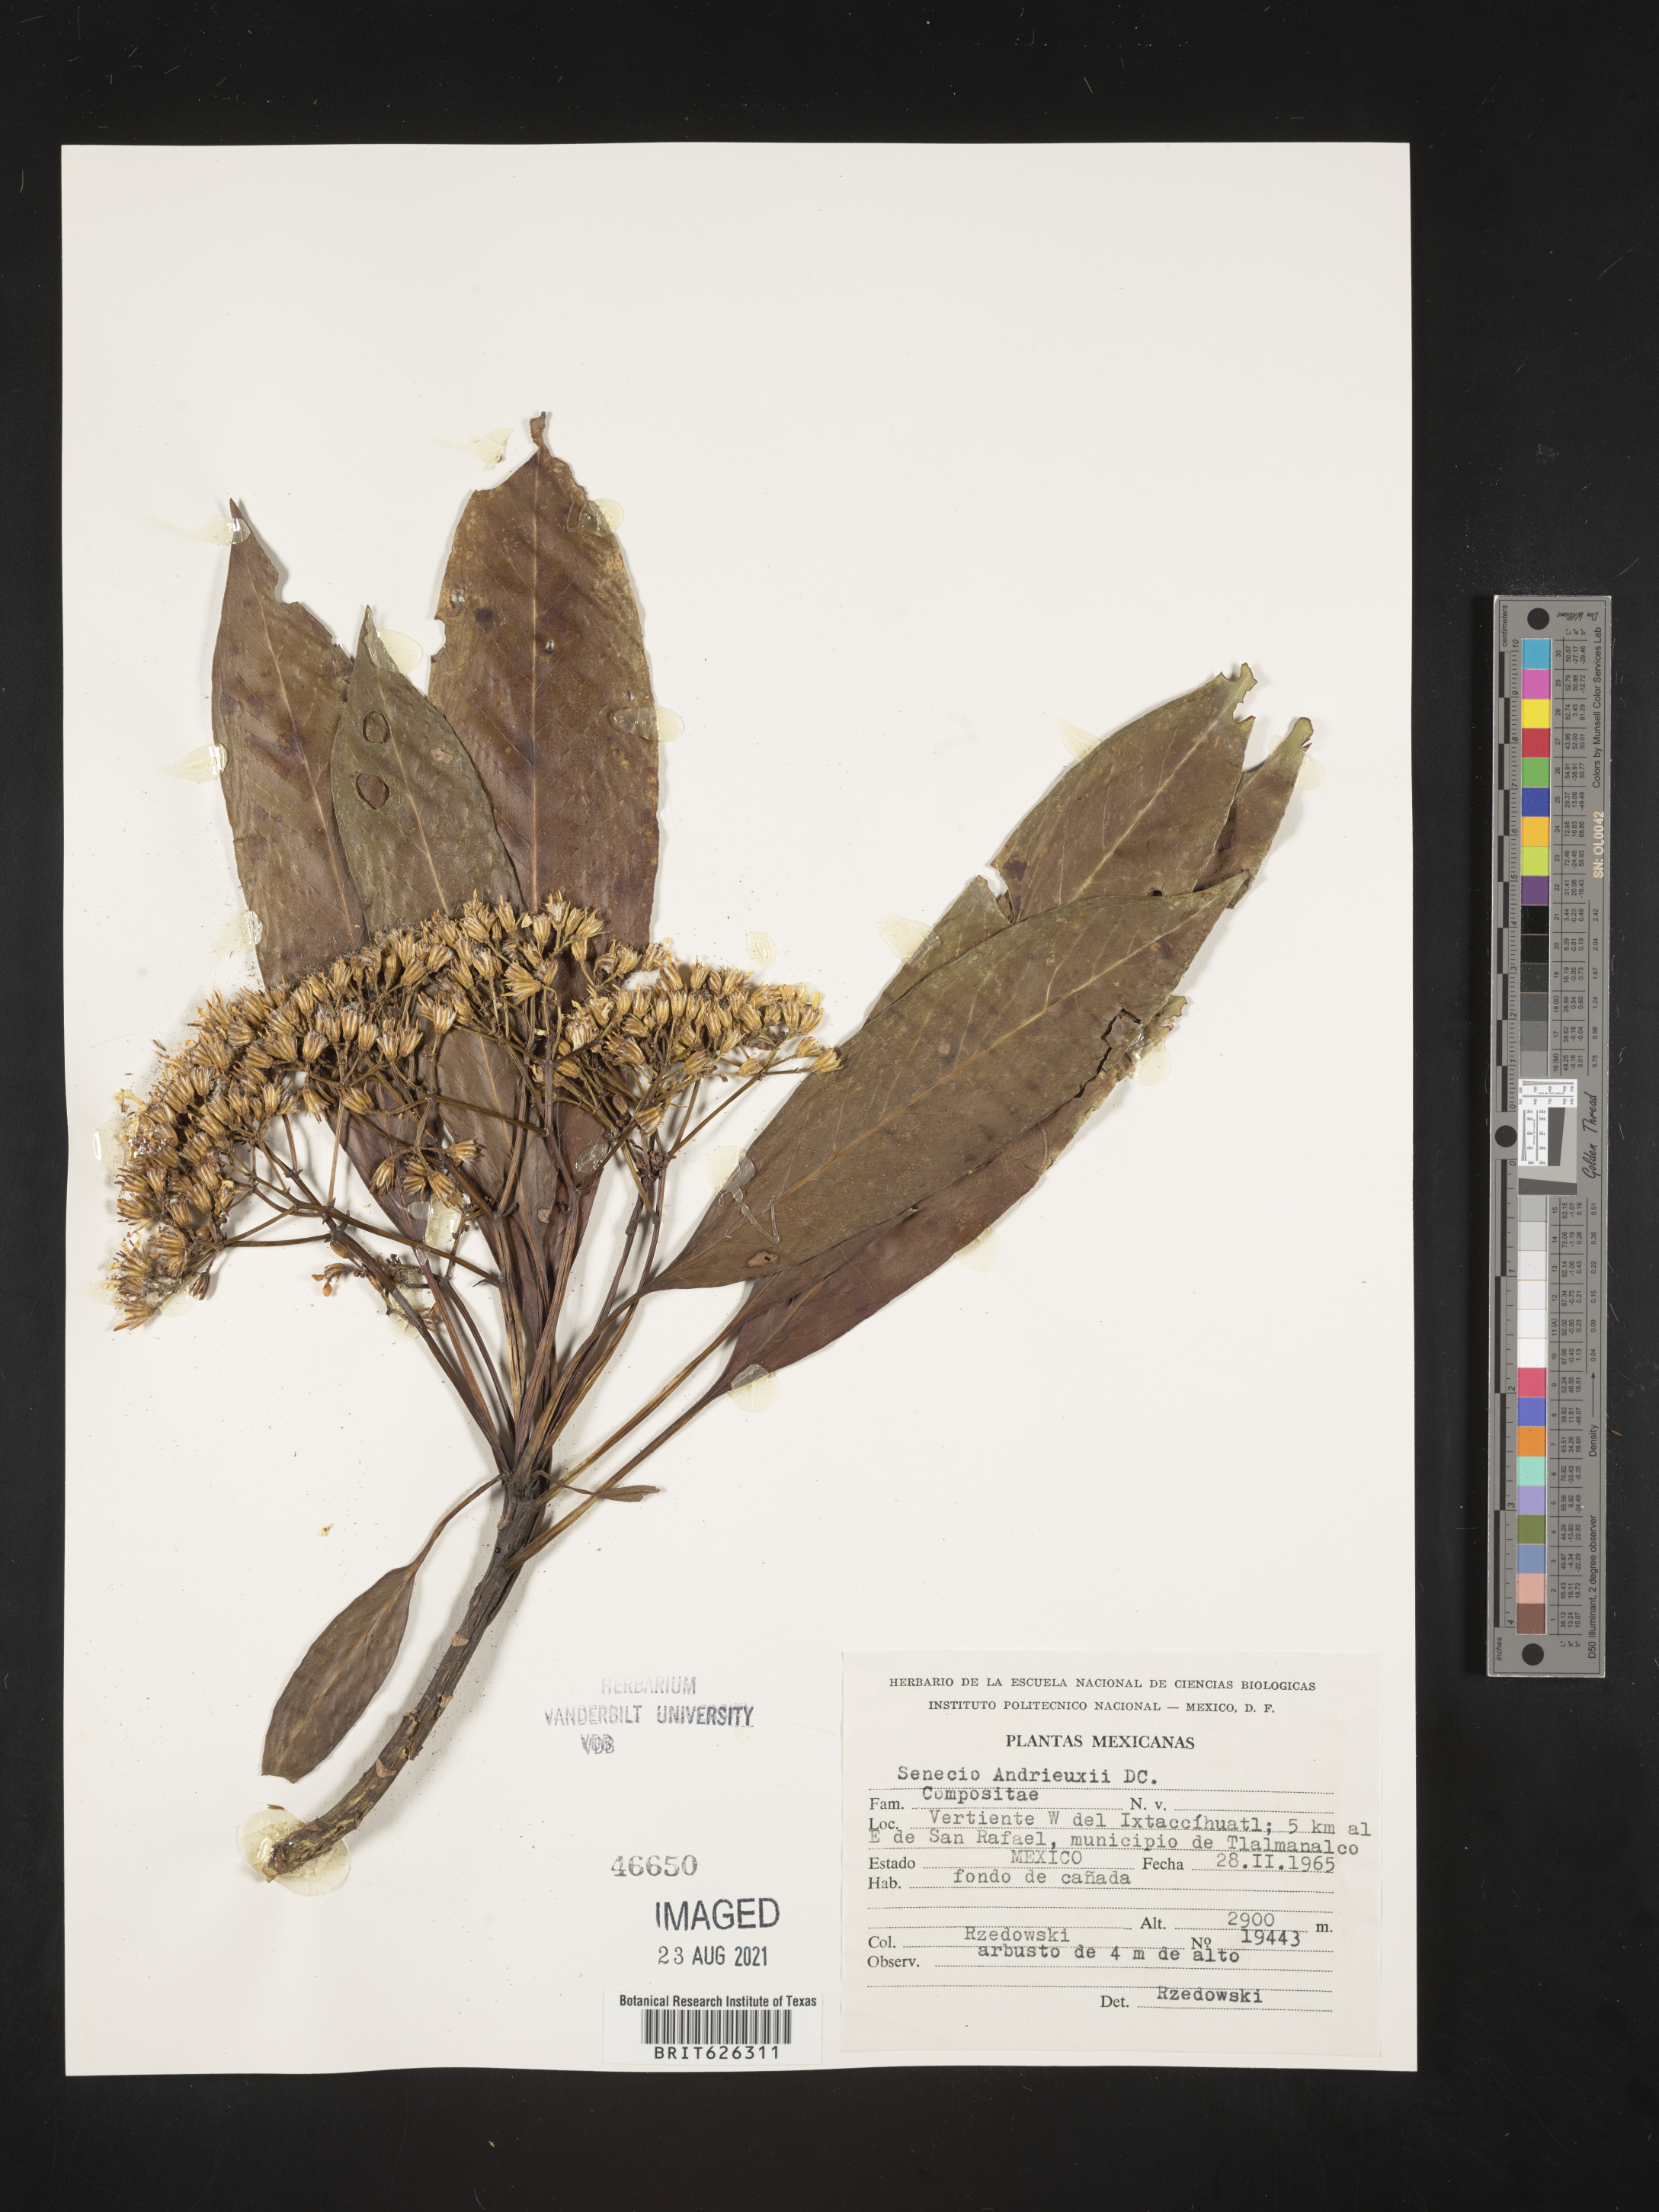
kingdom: Plantae
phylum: Tracheophyta
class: Magnoliopsida
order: Asterales
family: Asteraceae
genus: Senecio
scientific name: Senecio
